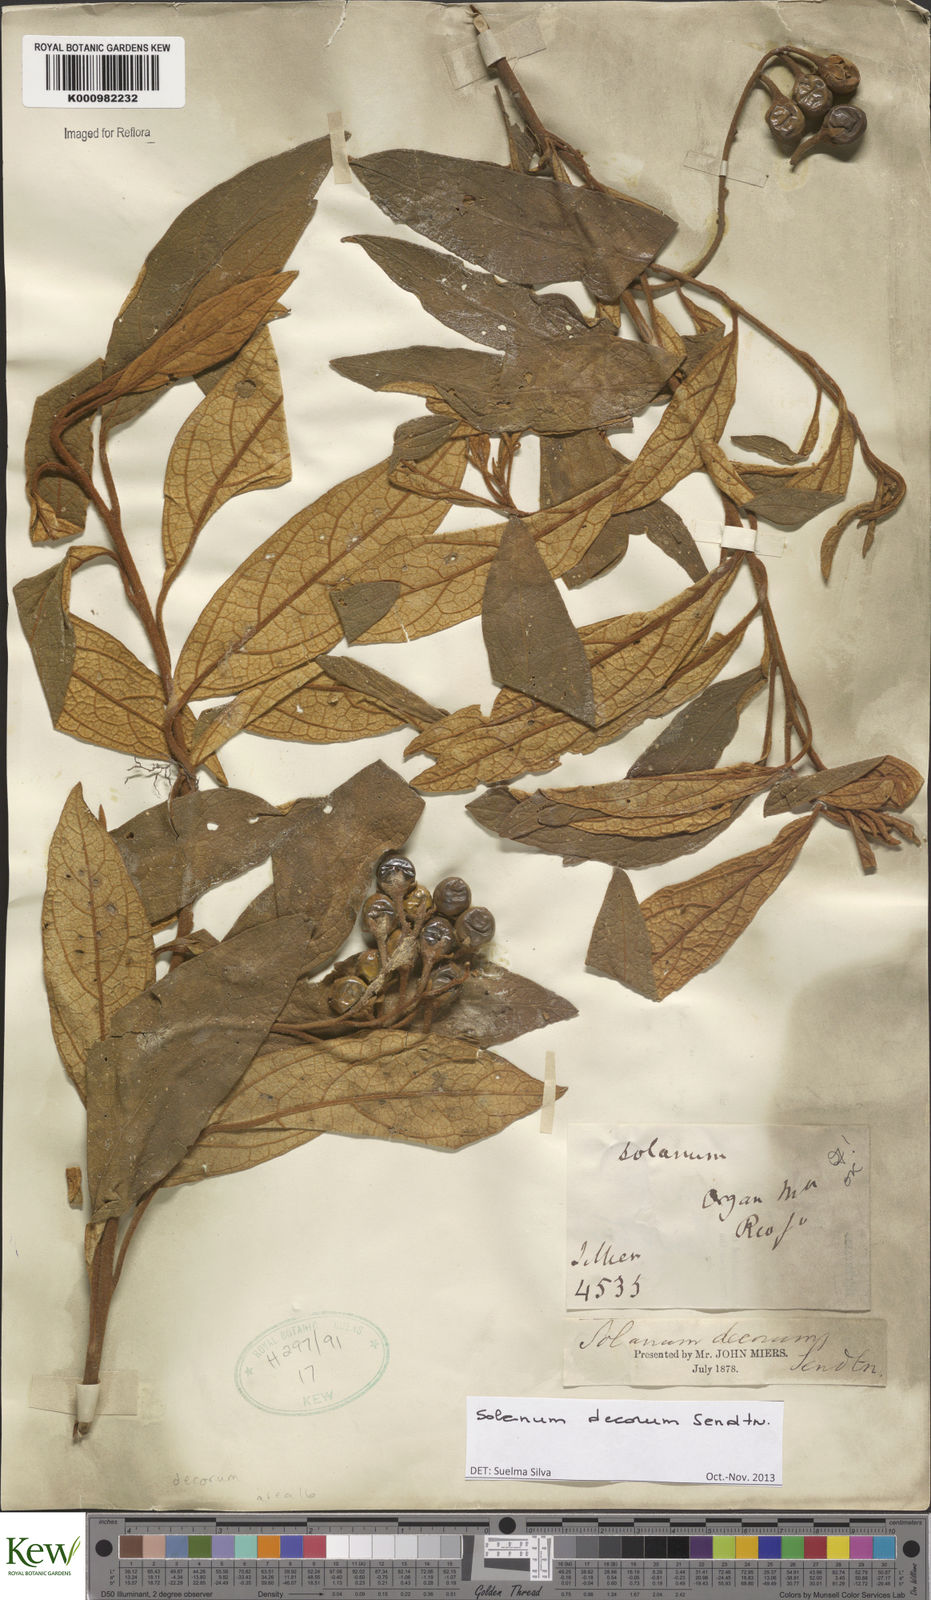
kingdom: Plantae
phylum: Tracheophyta
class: Magnoliopsida
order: Solanales
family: Solanaceae
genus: Solanum
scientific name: Solanum decorum
